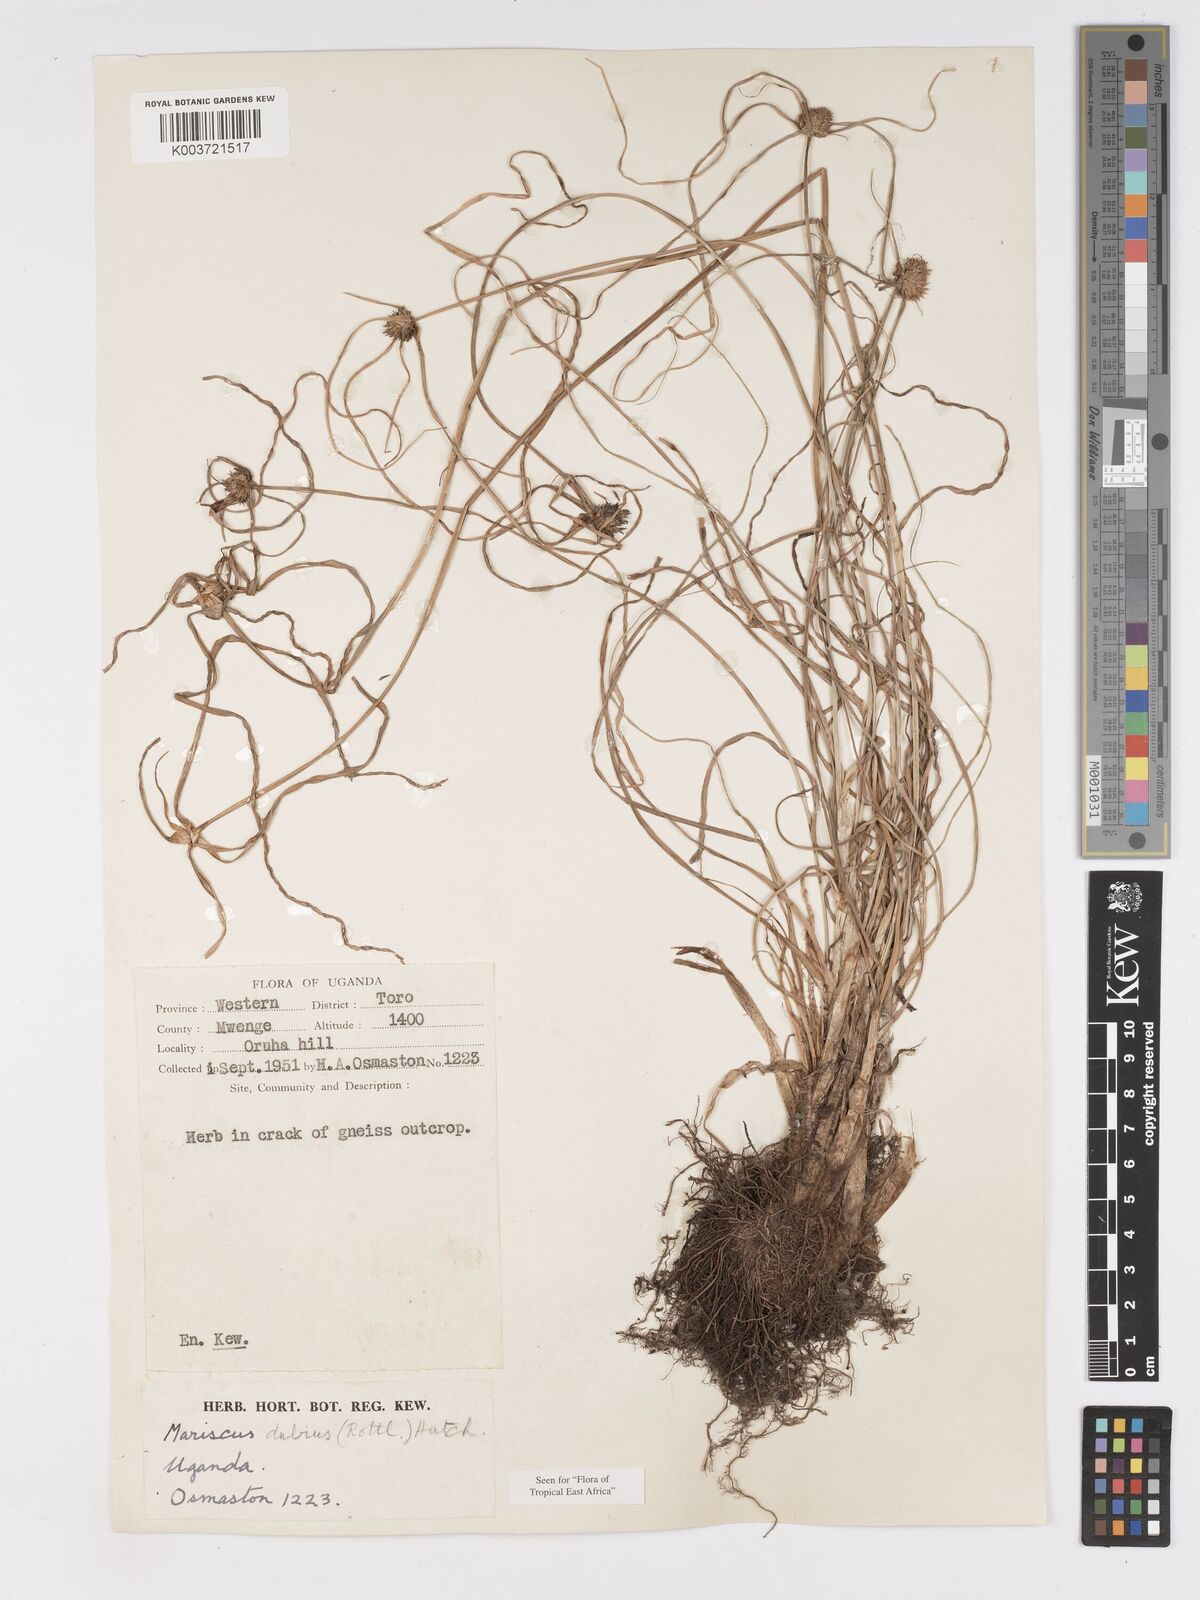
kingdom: Plantae
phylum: Tracheophyta
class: Liliopsida
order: Poales
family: Cyperaceae
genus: Cyperus
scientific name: Cyperus dubius
